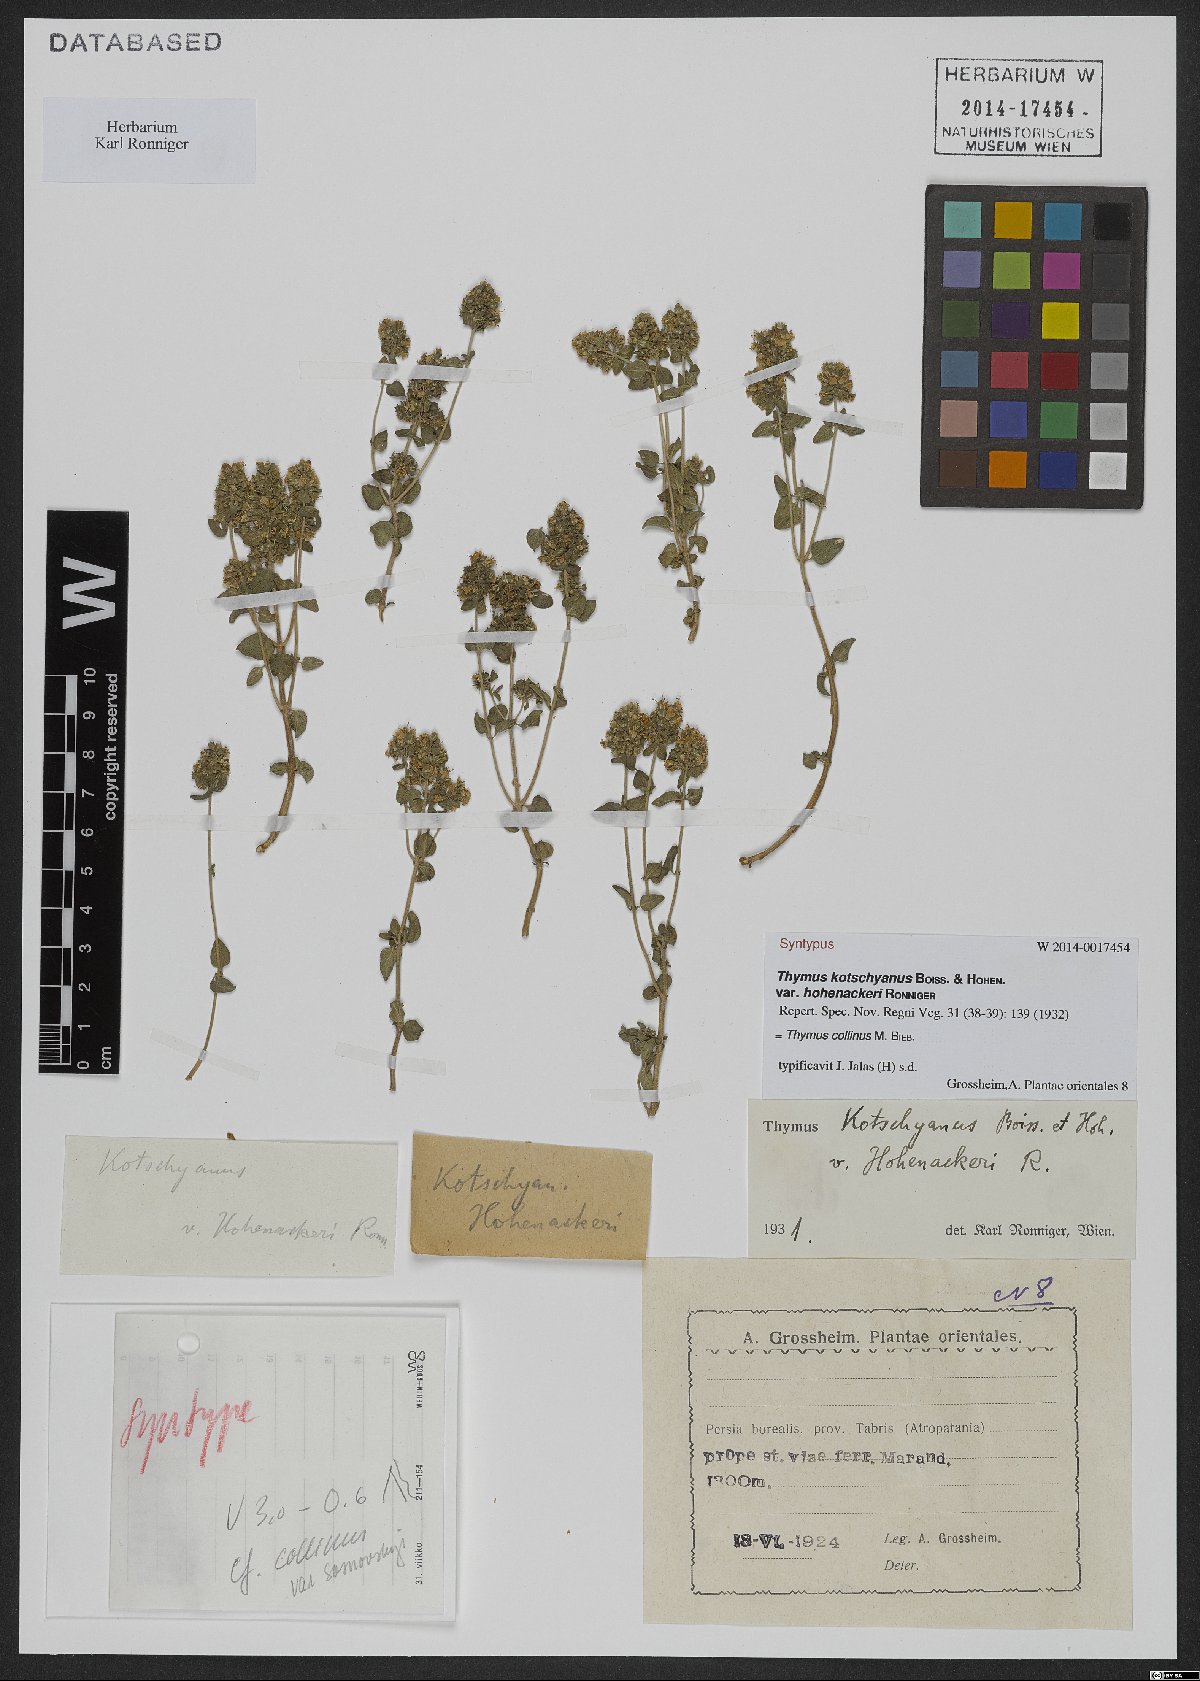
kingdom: Plantae
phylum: Tracheophyta
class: Magnoliopsida
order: Lamiales
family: Lamiaceae
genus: Thymus
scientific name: Thymus collinus
